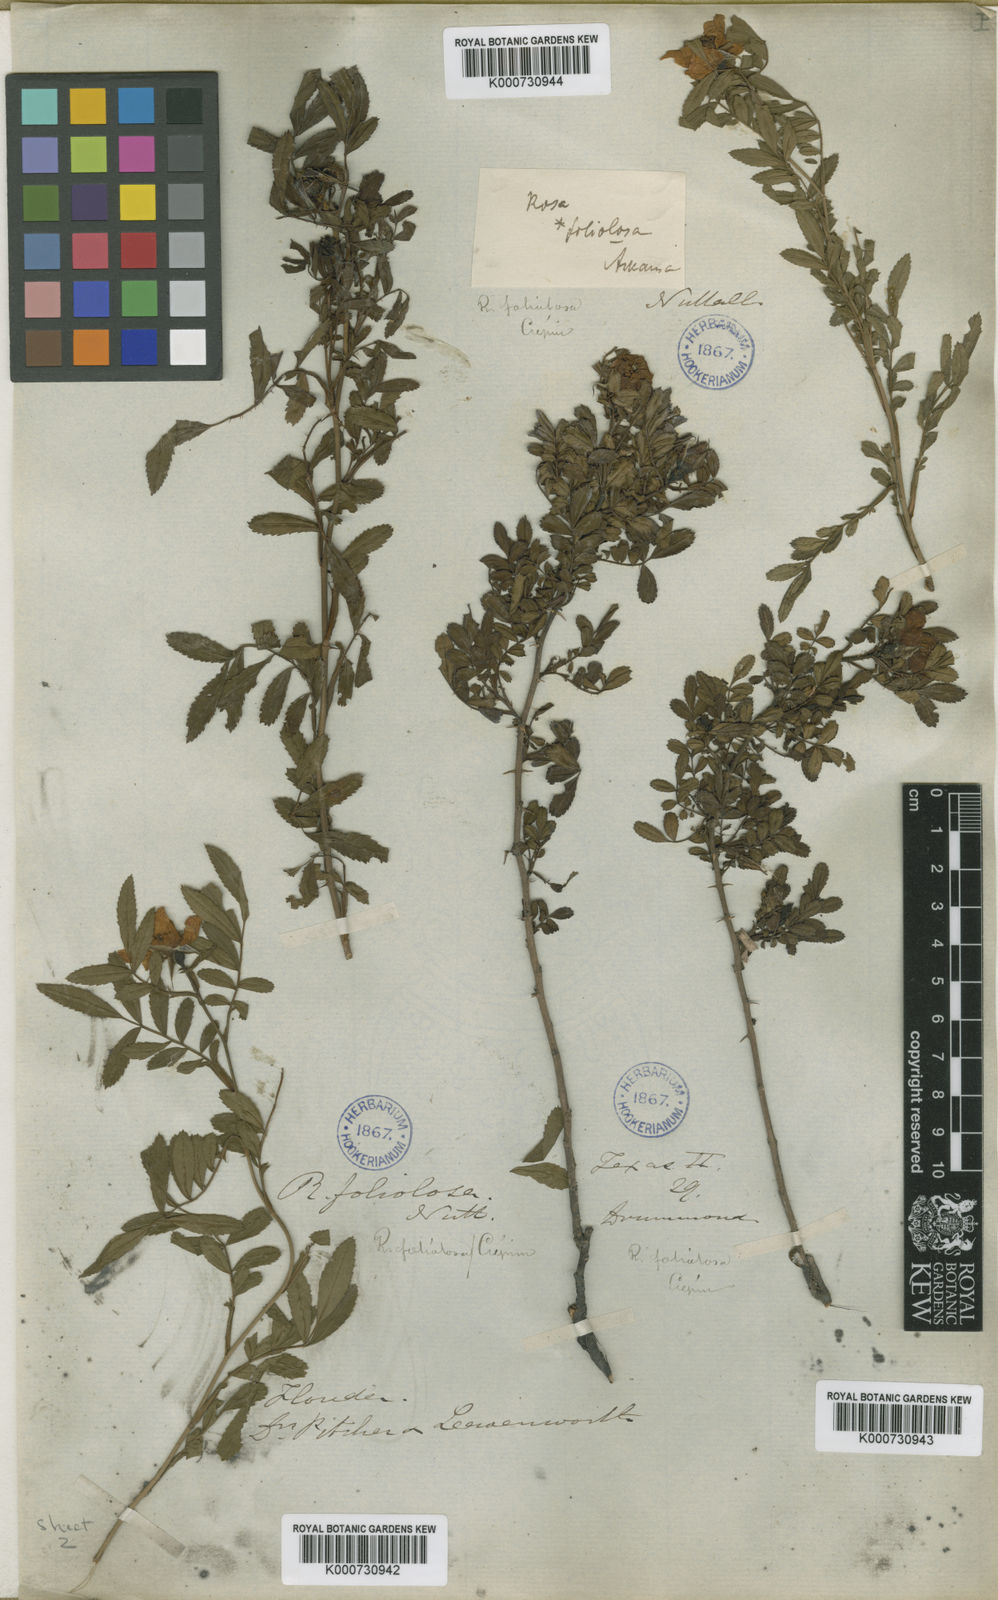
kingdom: Plantae
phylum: Tracheophyta
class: Magnoliopsida
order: Rosales
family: Rosaceae
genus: Rosa
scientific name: Rosa
